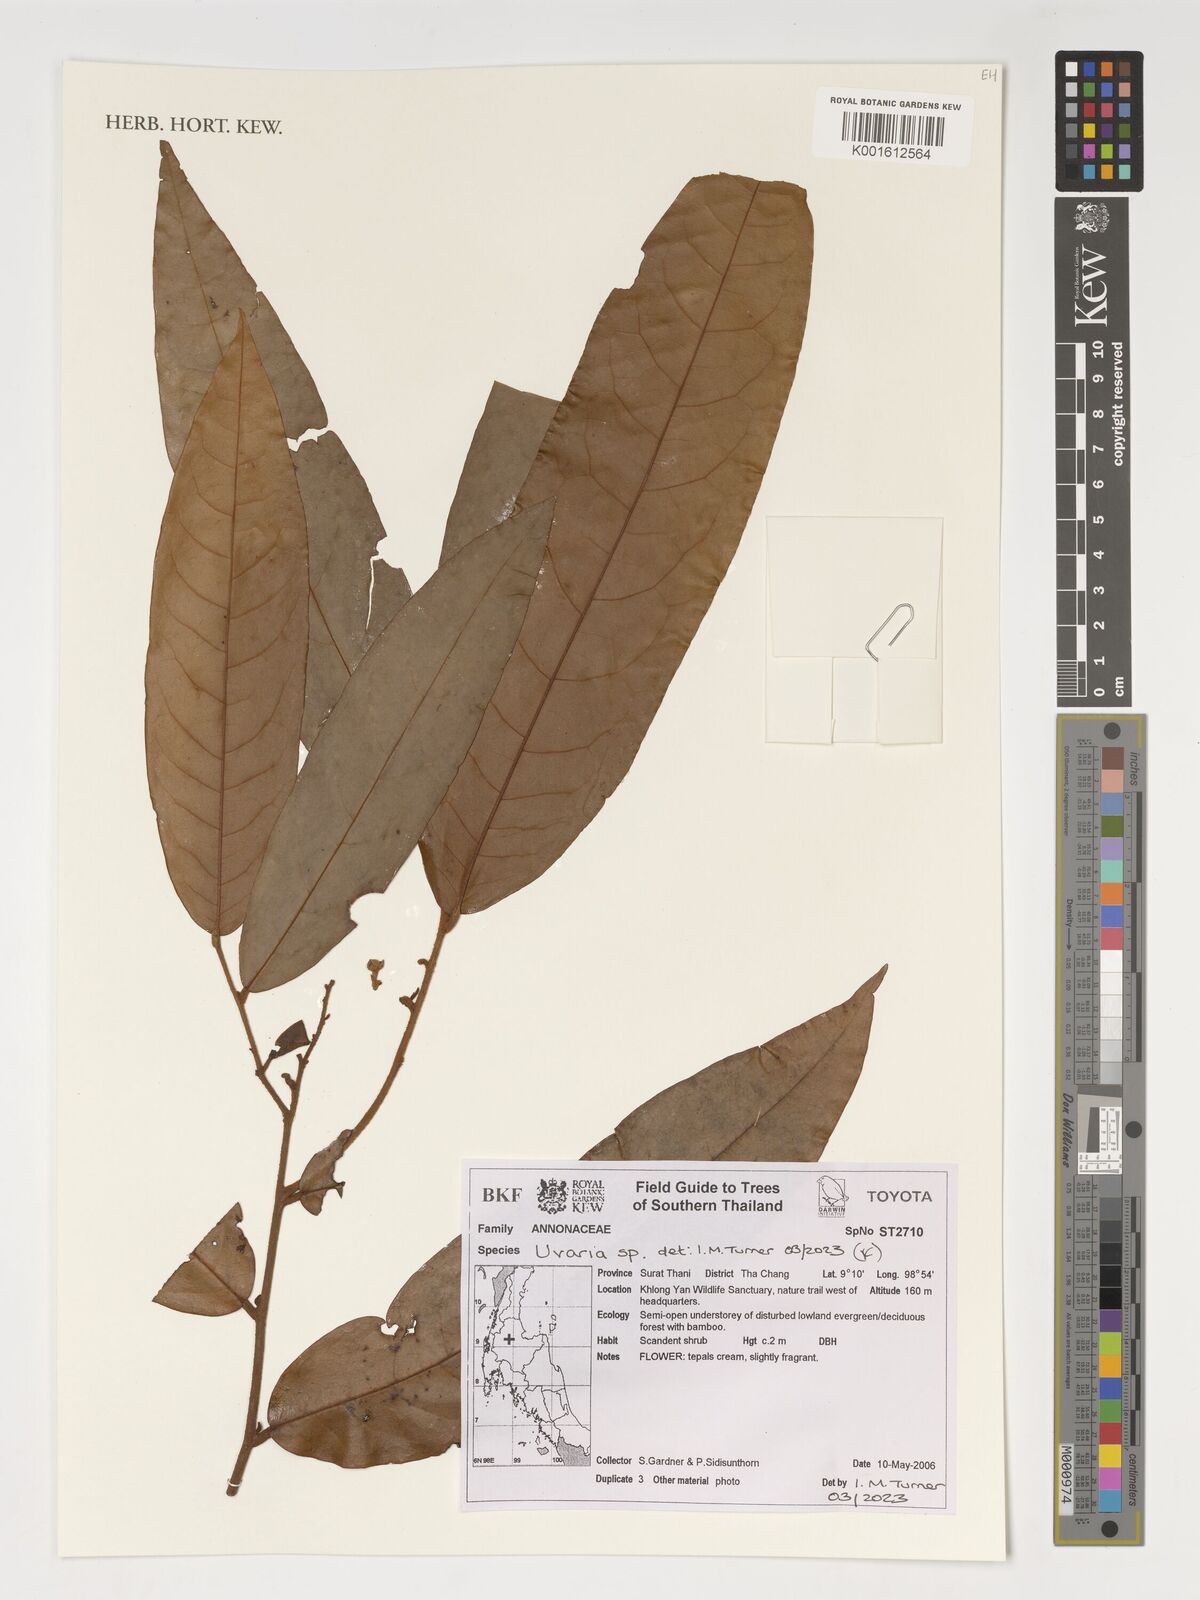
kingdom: Plantae
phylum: Tracheophyta
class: Magnoliopsida
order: Magnoliales
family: Annonaceae
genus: Uvaria
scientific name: Uvaria
